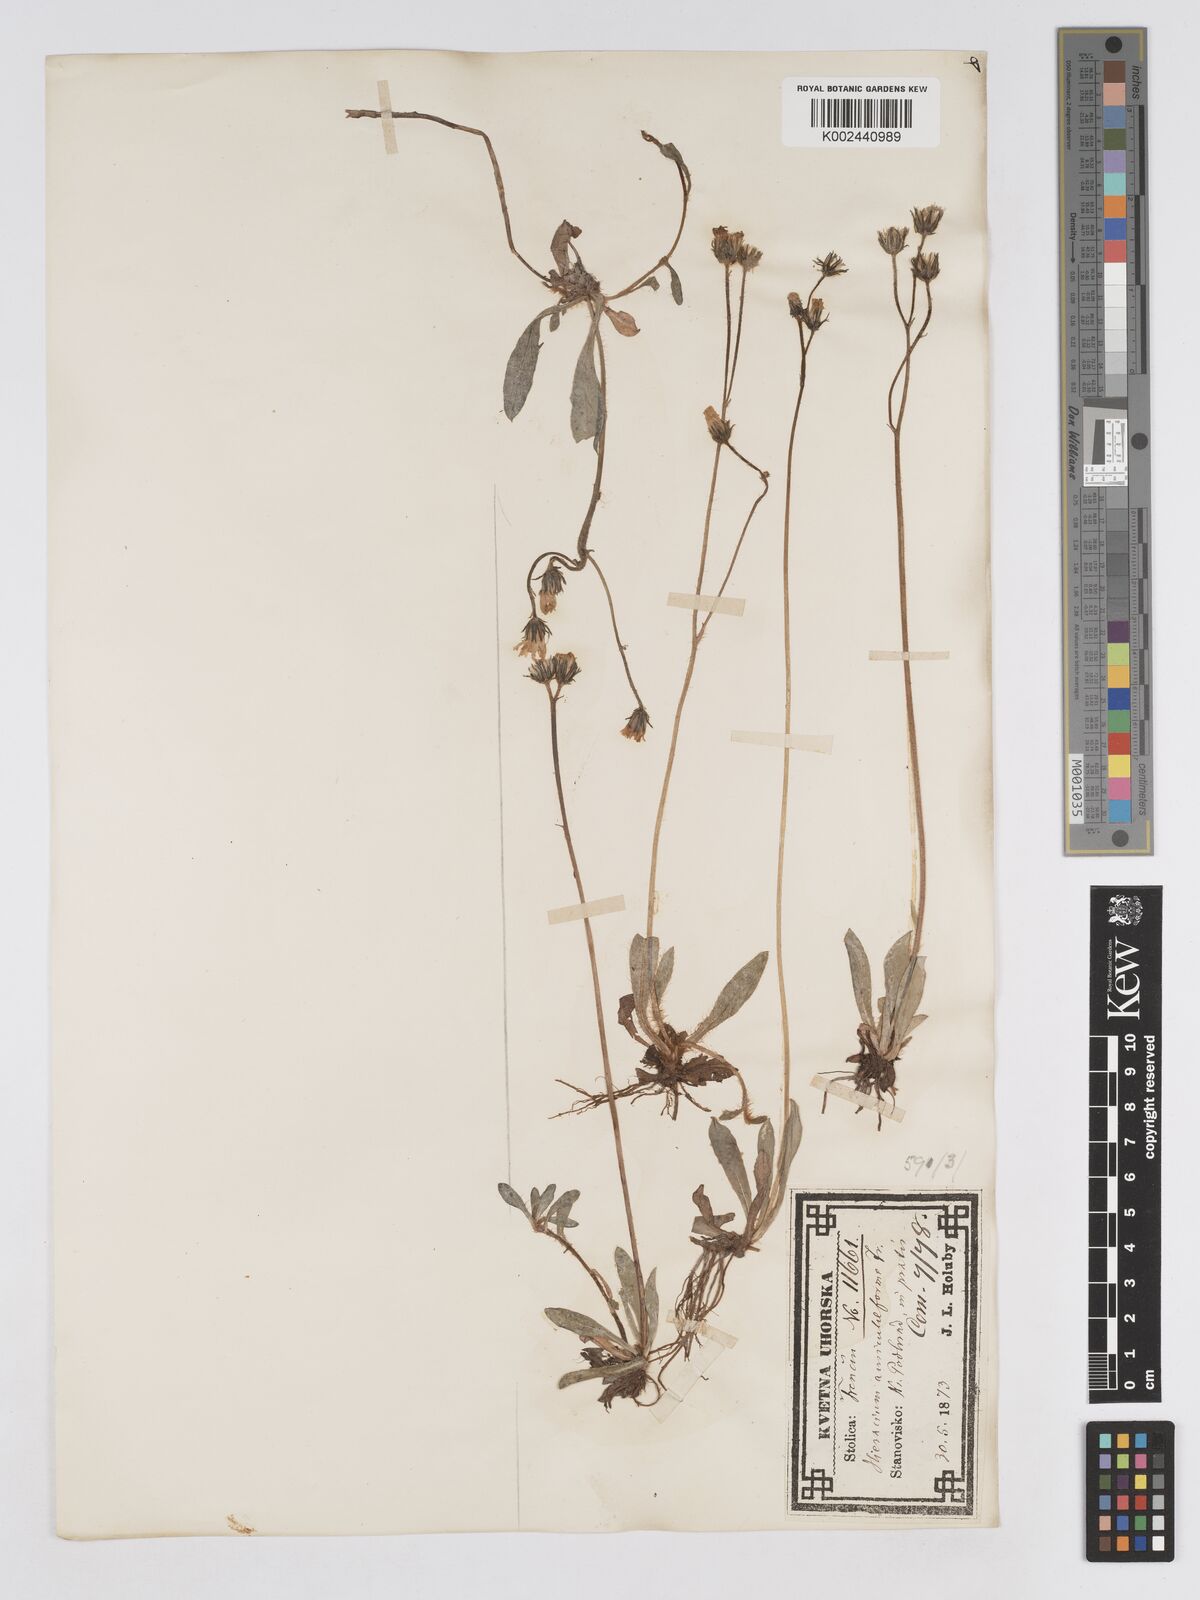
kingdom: Plantae
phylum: Tracheophyta
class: Magnoliopsida
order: Asterales
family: Asteraceae
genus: Pilosella
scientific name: Pilosella schultesii
